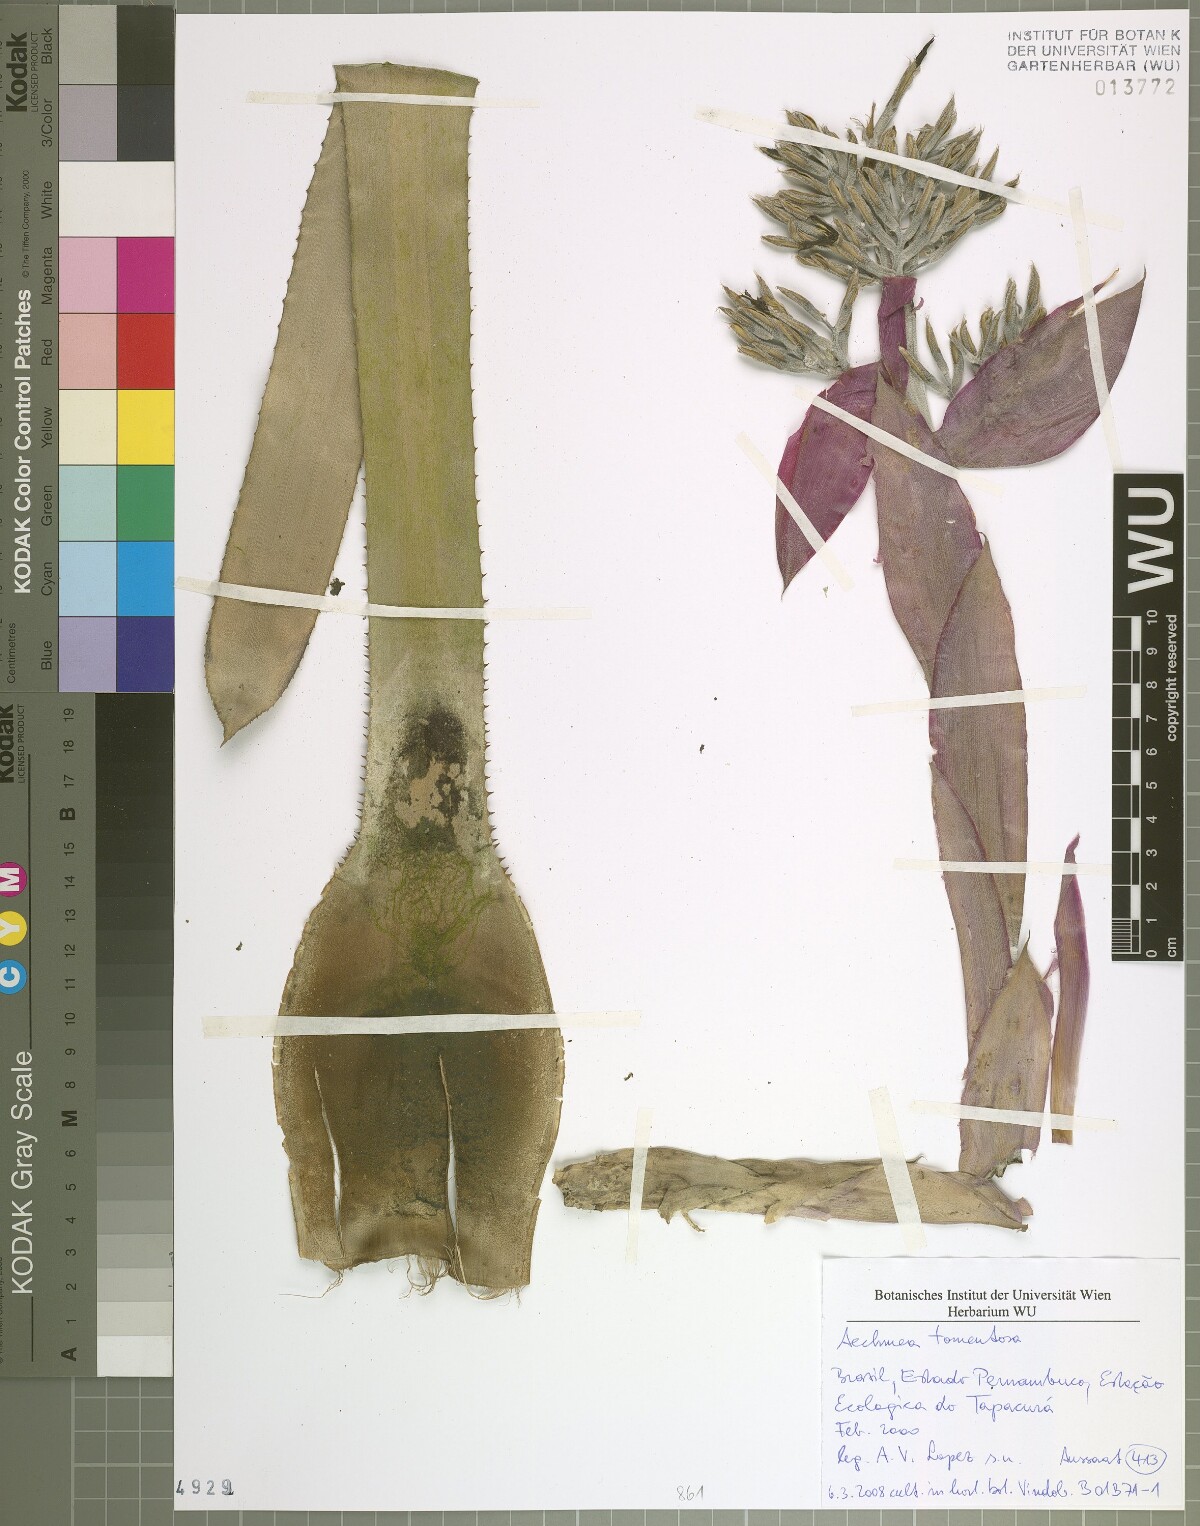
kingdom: Plantae
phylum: Tracheophyta
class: Liliopsida
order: Poales
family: Bromeliaceae
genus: Aechmea
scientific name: Aechmea tomentosa
